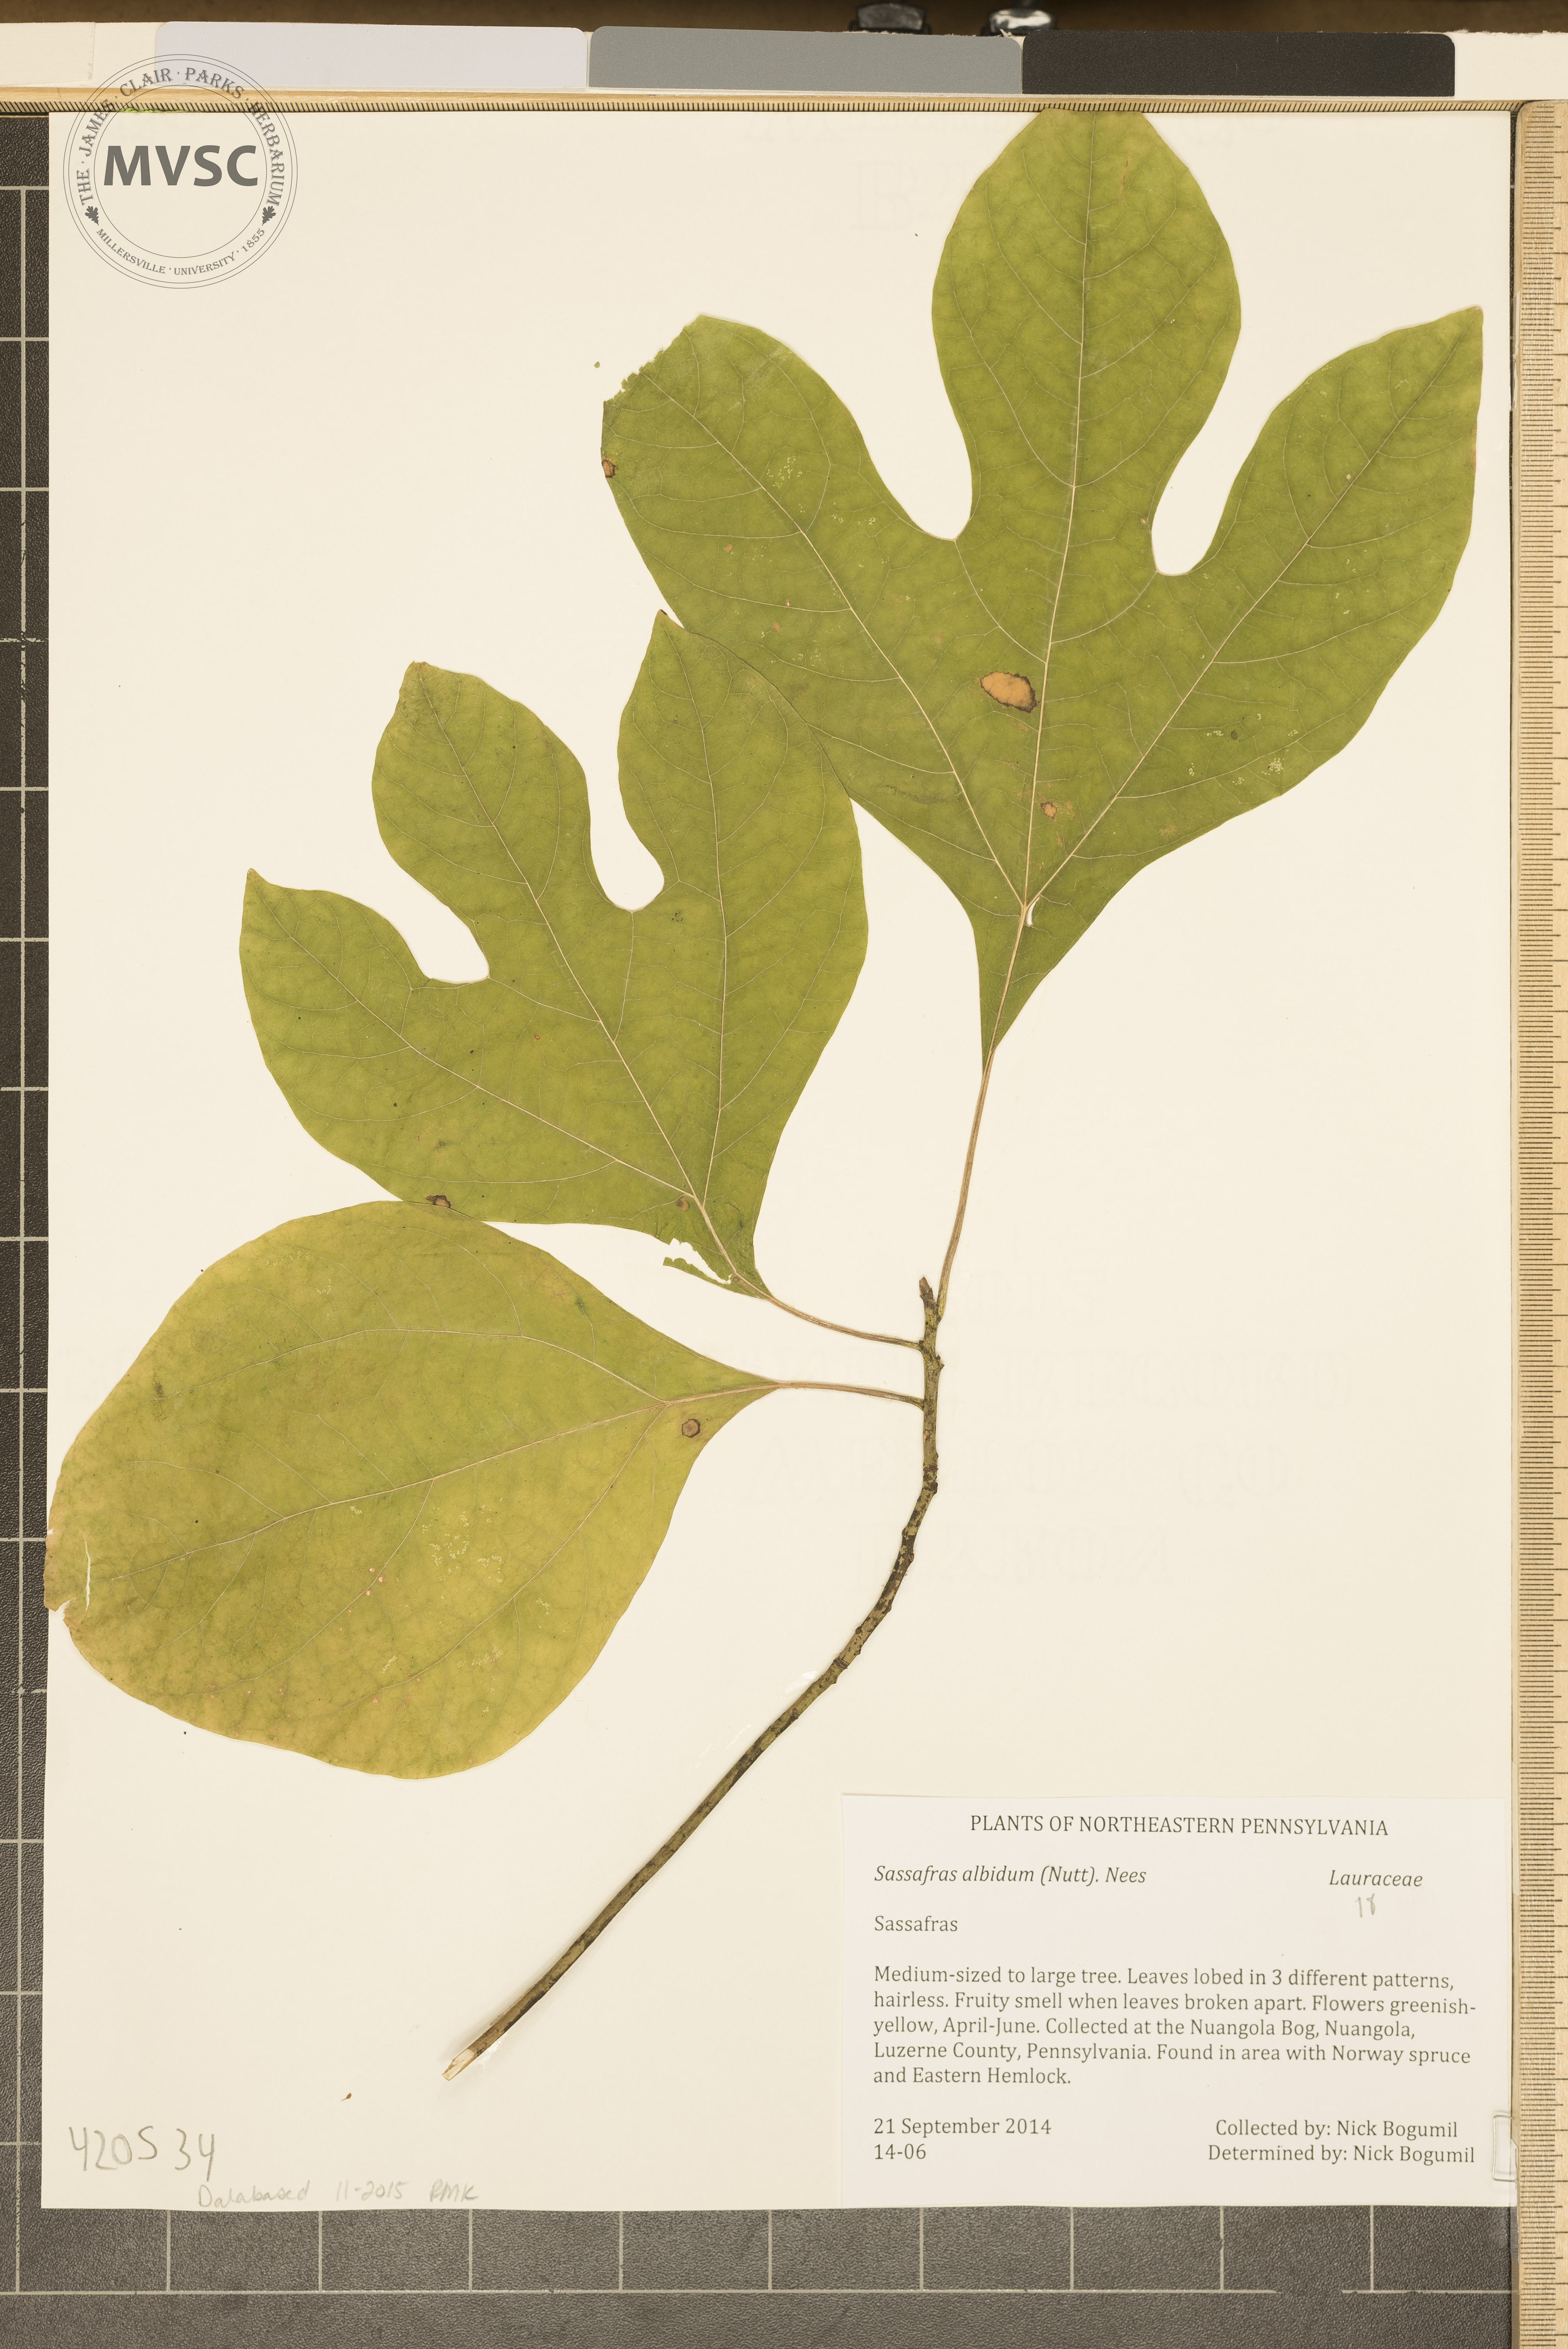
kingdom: Plantae
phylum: Tracheophyta
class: Magnoliopsida
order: Laurales
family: Lauraceae
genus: Sassafras
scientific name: Sassafras albidum
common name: Sassafras
